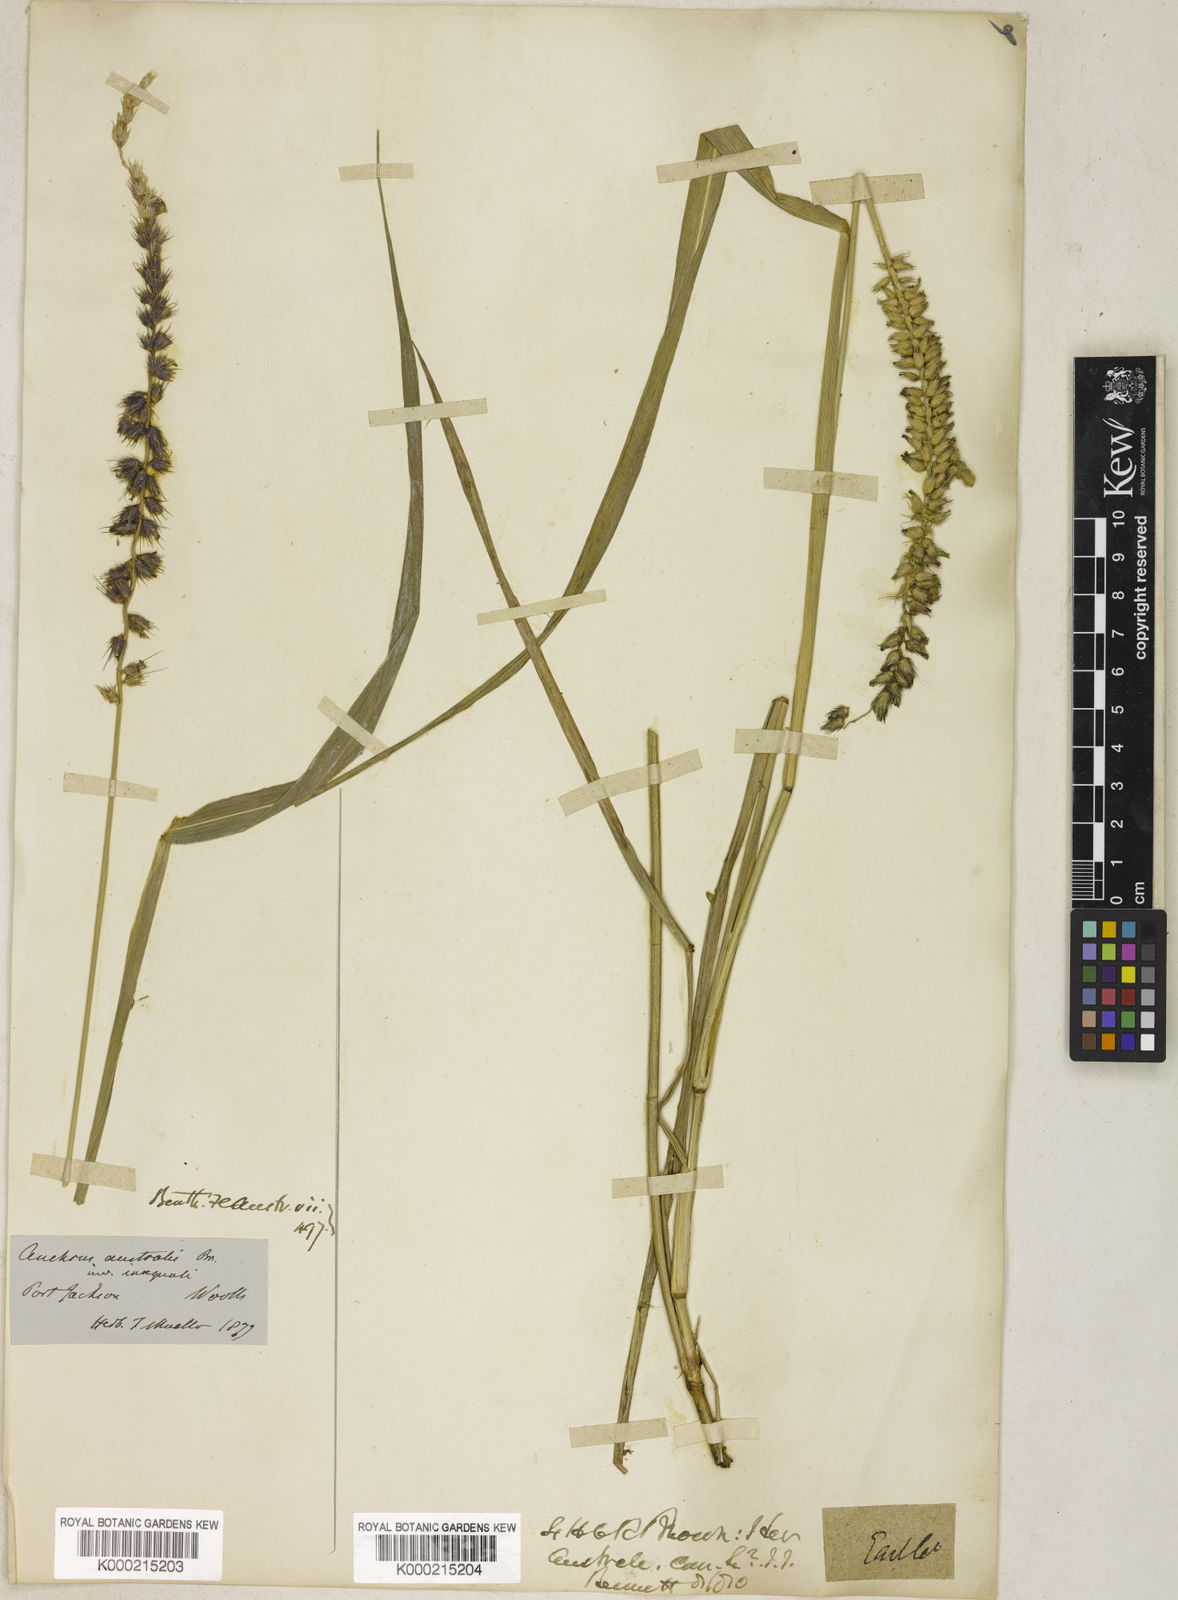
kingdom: Plantae
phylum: Tracheophyta
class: Liliopsida
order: Poales
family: Poaceae
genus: Cenchrus
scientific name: Cenchrus caliculatus
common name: Large bur grass
